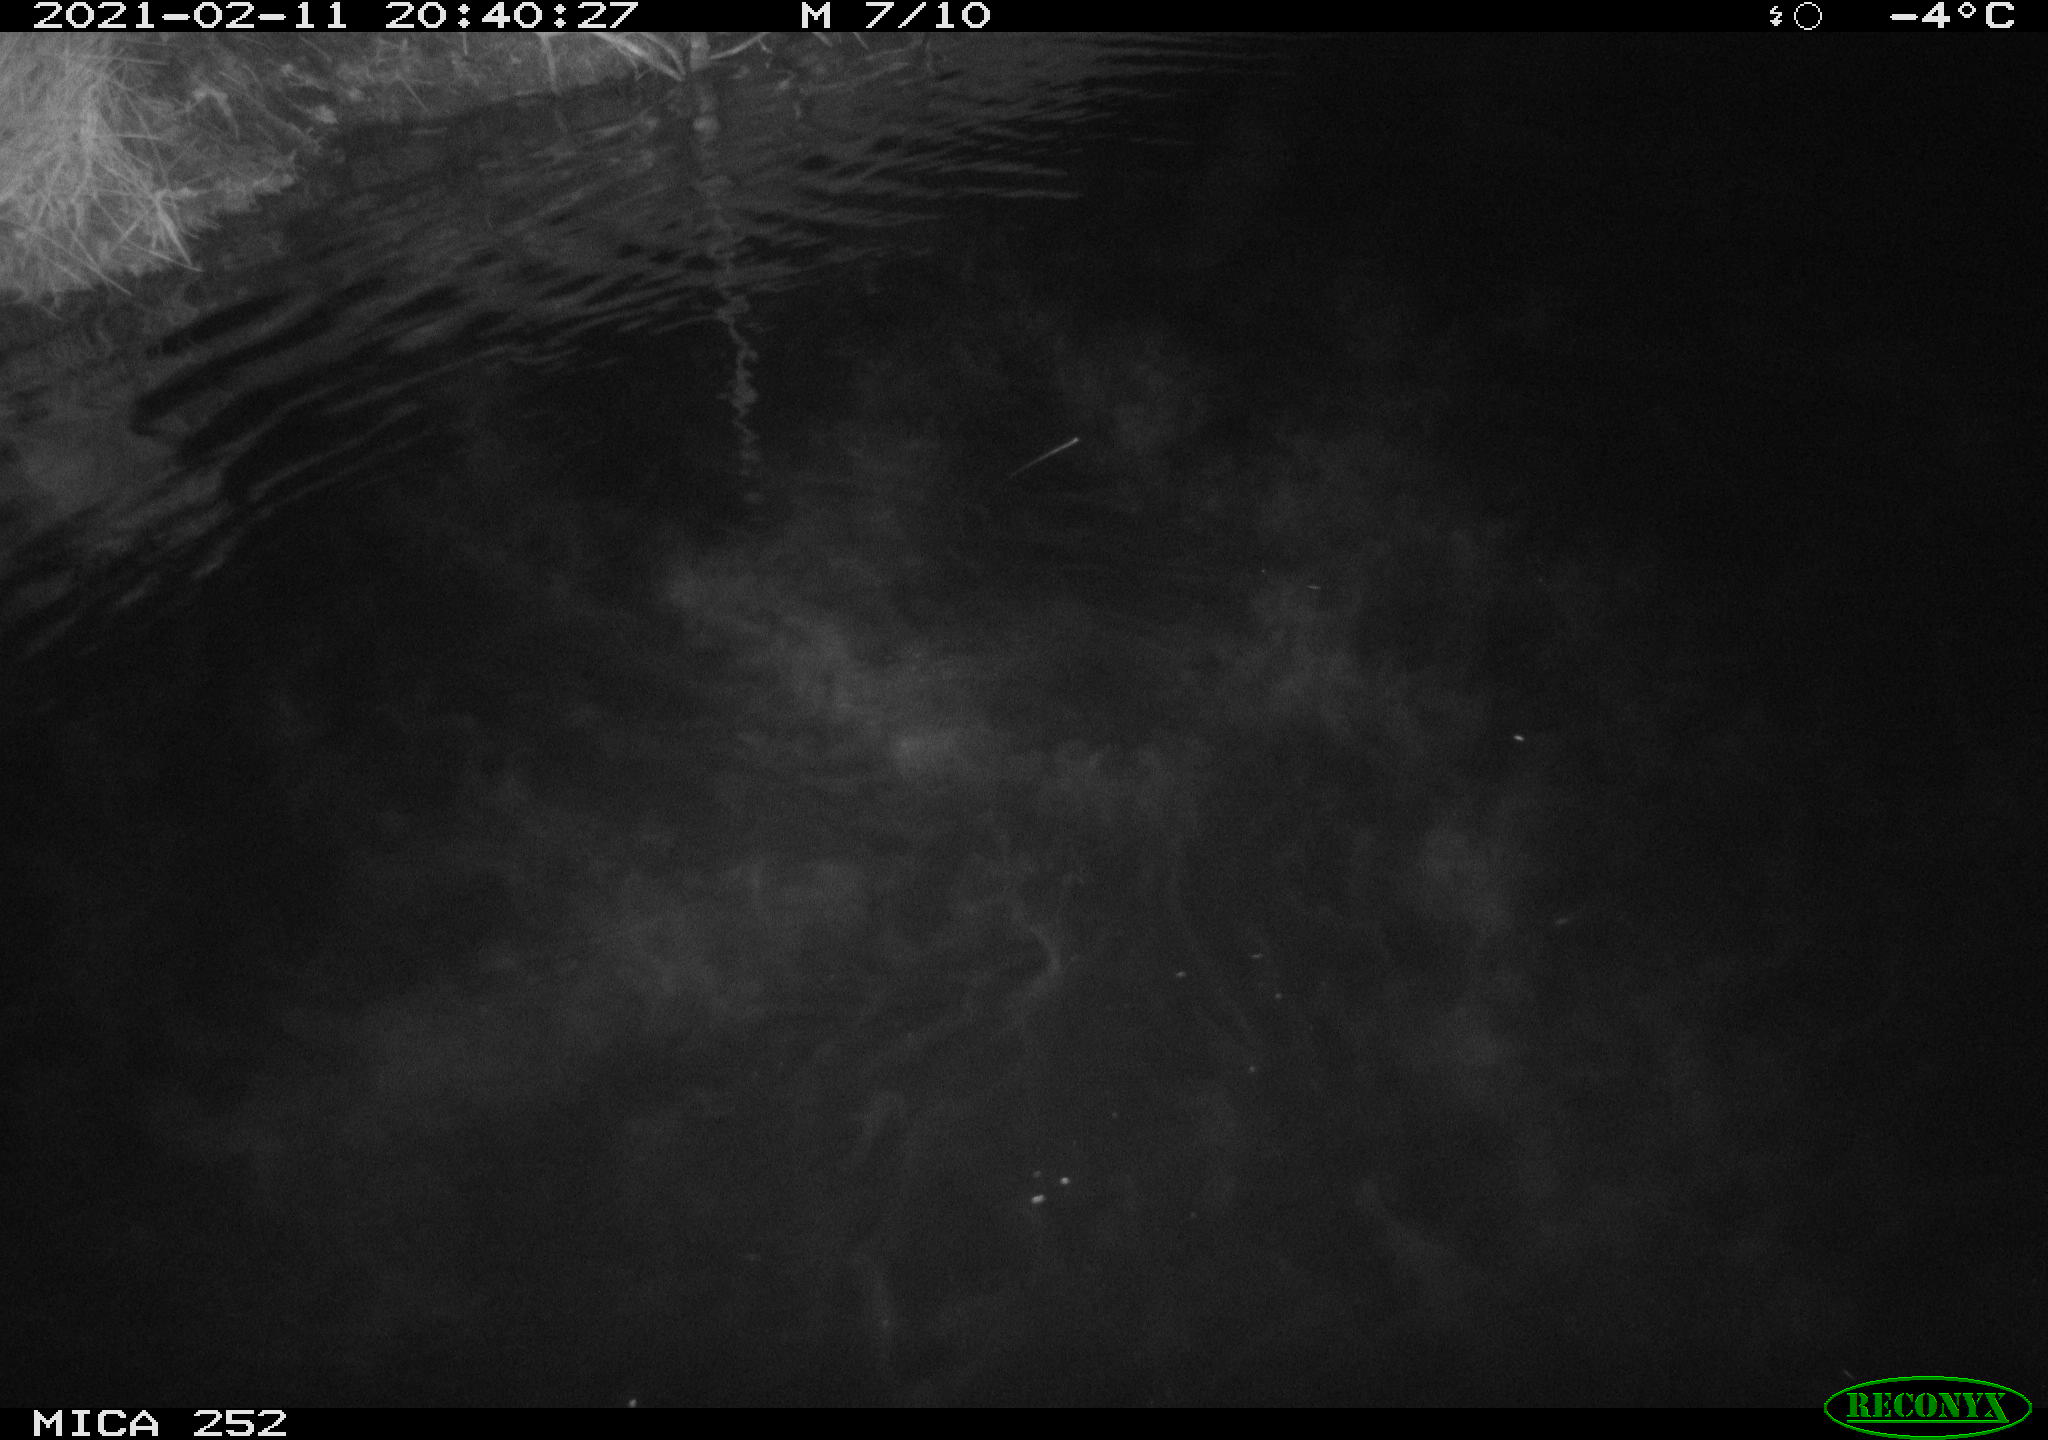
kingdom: Animalia
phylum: Chordata
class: Mammalia
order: Rodentia
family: Castoridae
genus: Castor
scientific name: Castor fiber
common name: Eurasian beaver
